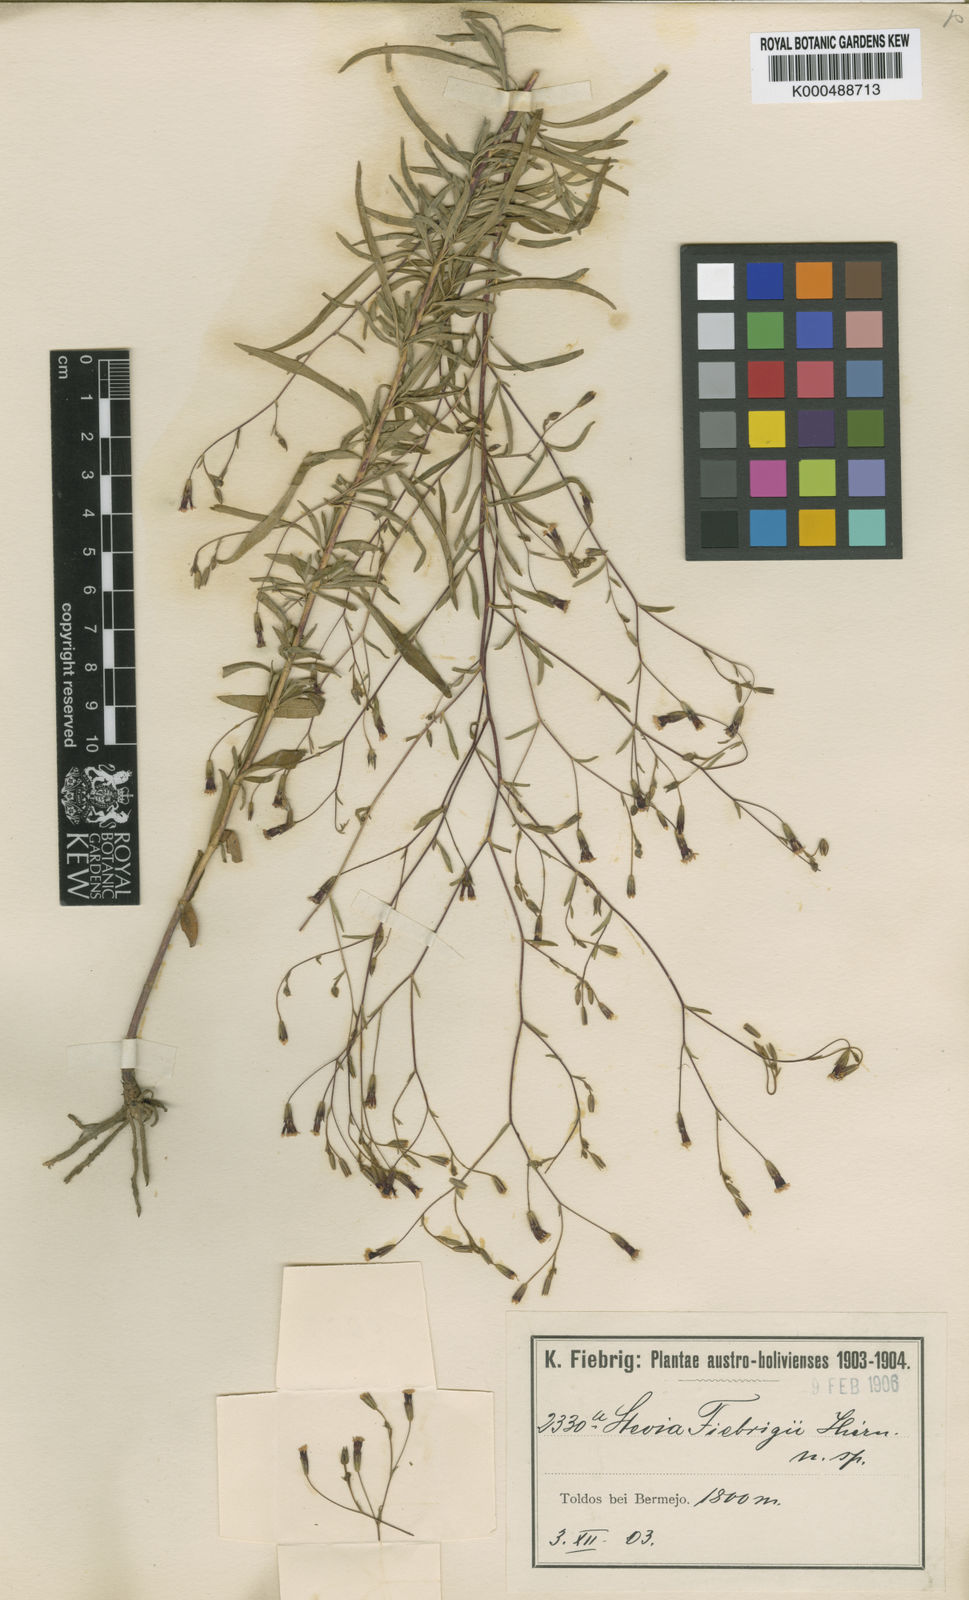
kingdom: Plantae
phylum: Tracheophyta
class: Magnoliopsida
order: Asterales
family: Asteraceae
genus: Stevia
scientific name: Stevia fiebrigii
